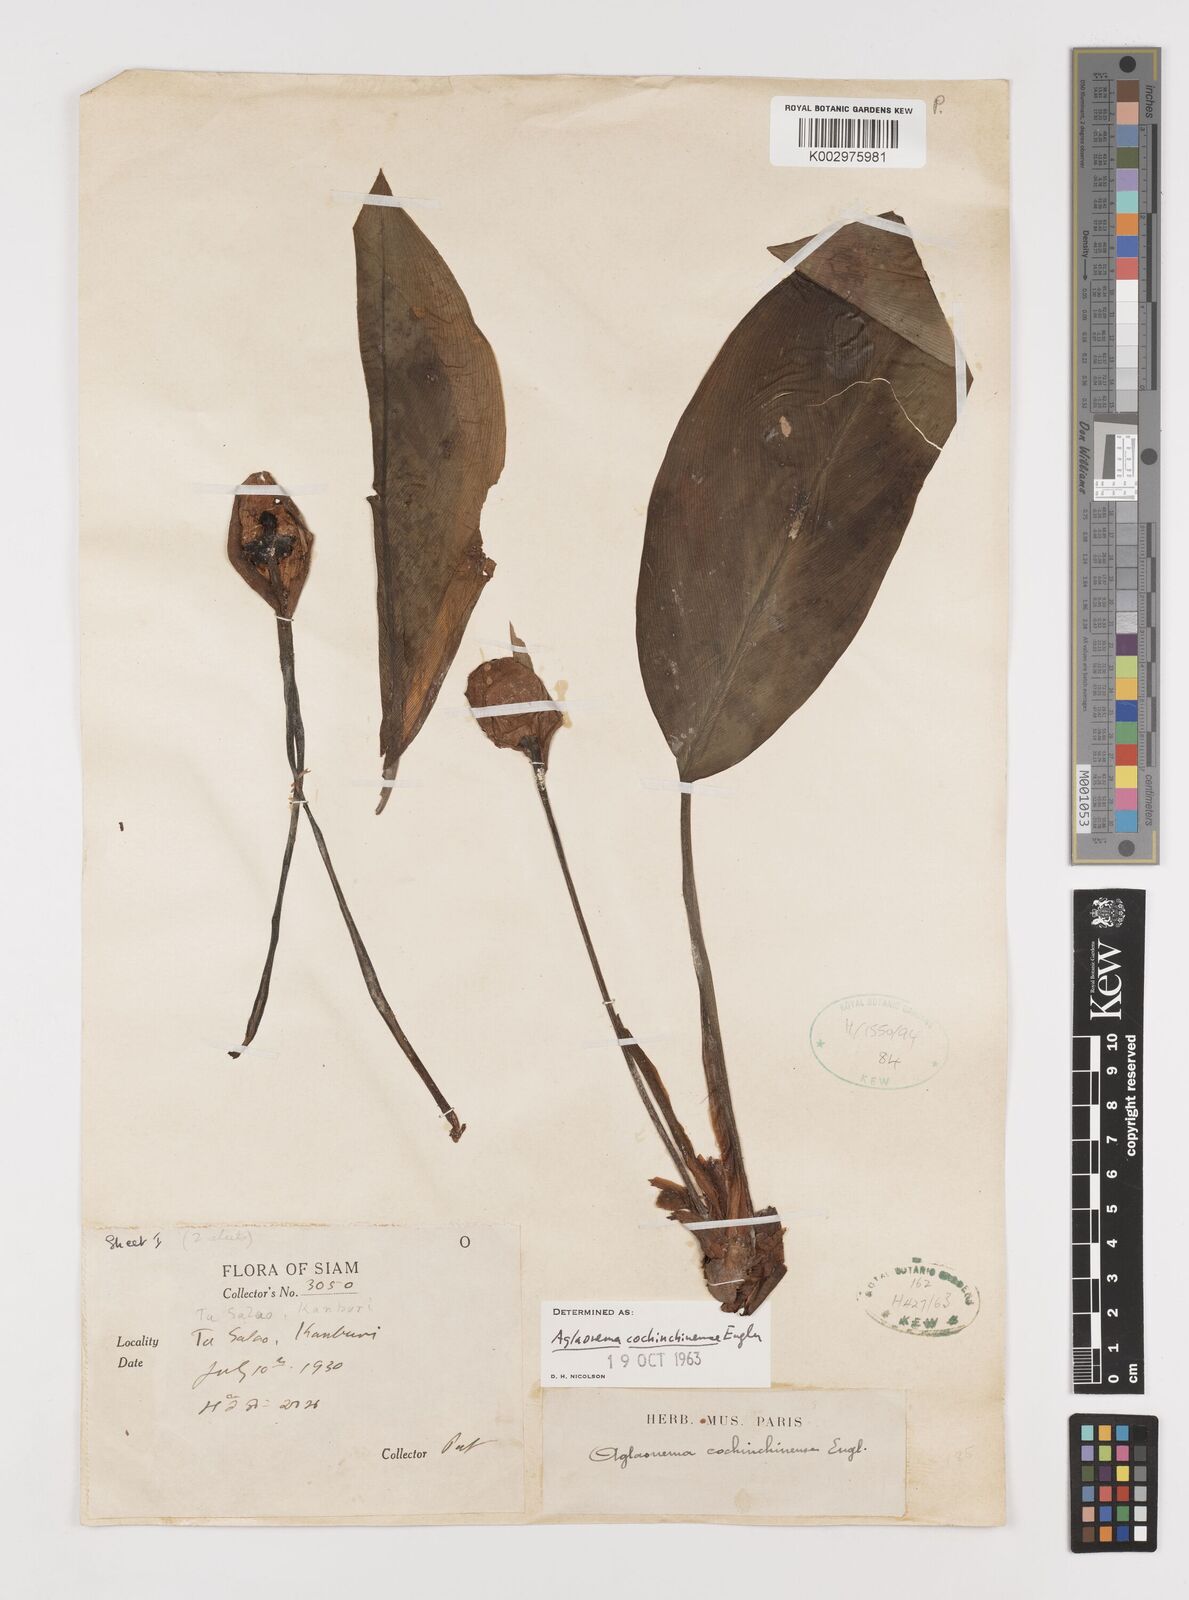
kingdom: Plantae
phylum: Tracheophyta
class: Liliopsida
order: Alismatales
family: Araceae
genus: Aglaonema
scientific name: Aglaonema cochinchinense
